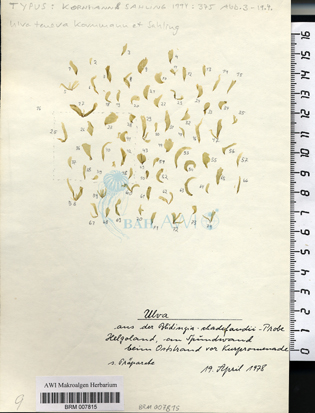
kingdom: Plantae
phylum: Chlorophyta
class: Ulvophyceae
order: Ulvales
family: Ulvaceae
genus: Ulva
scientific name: Ulva tenera
